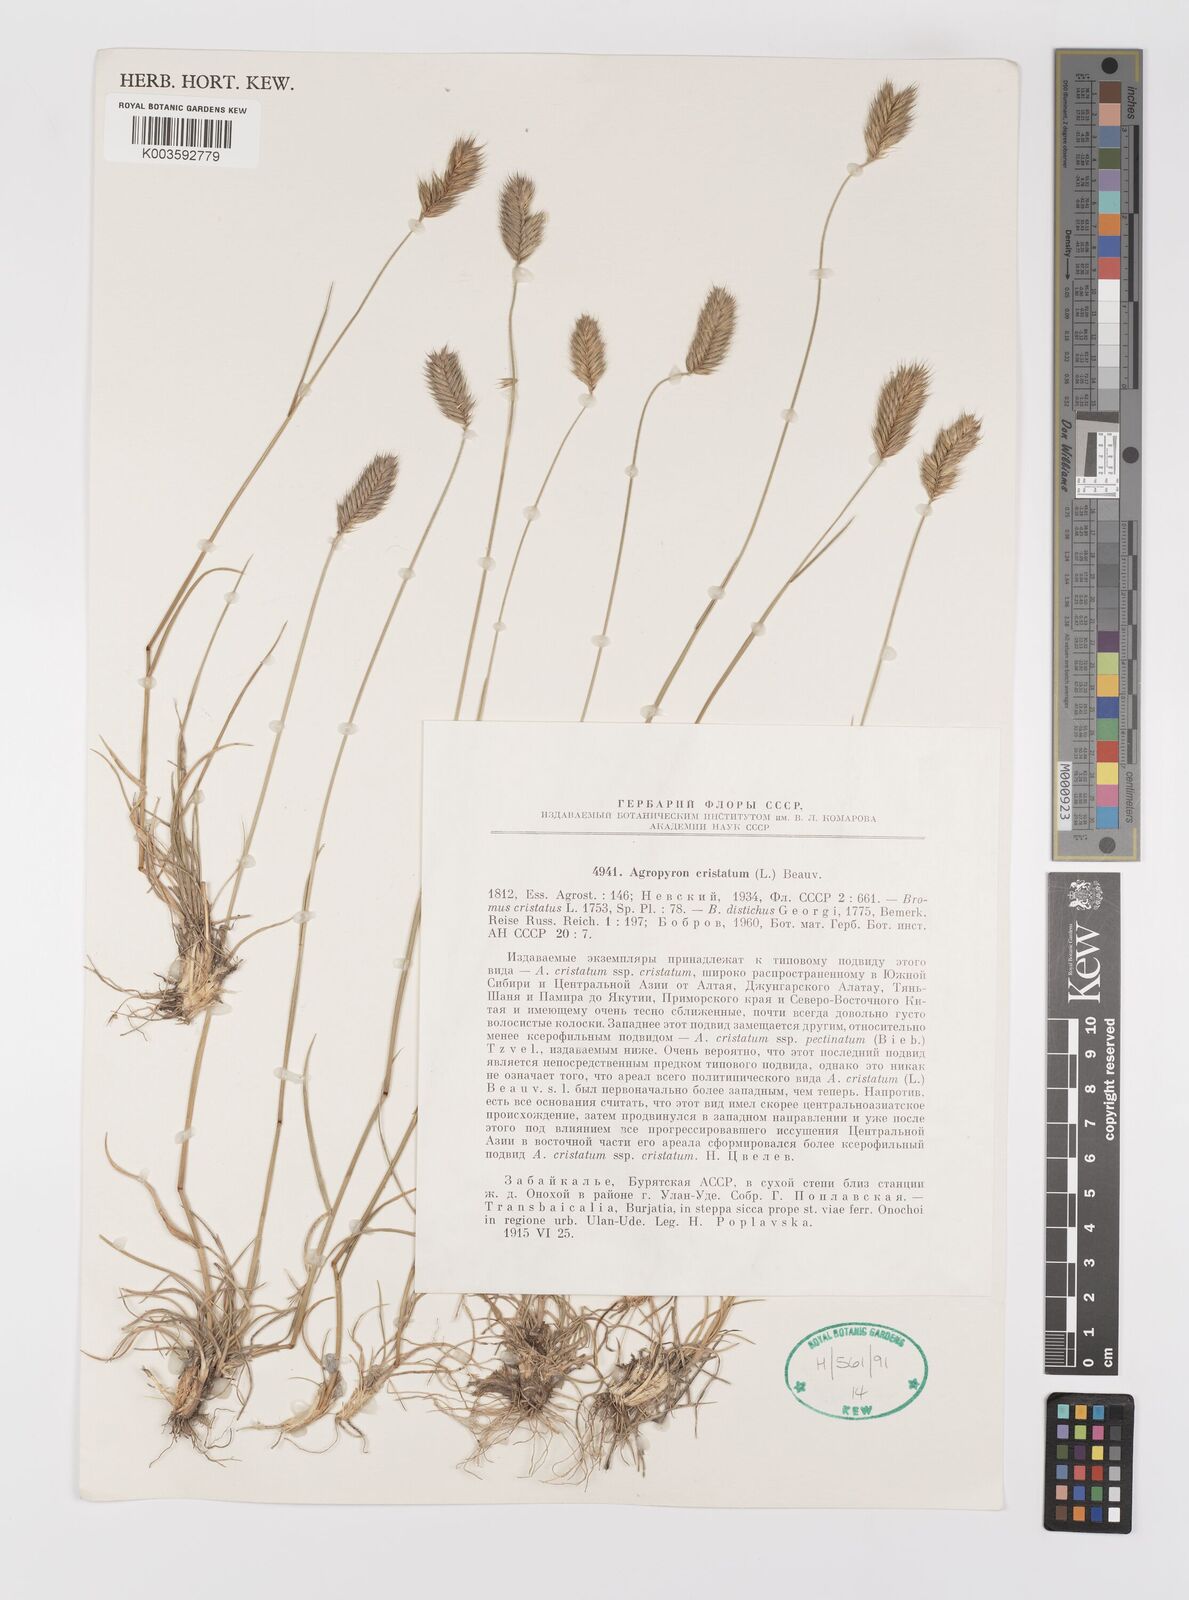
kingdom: Plantae
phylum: Tracheophyta
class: Liliopsida
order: Poales
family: Poaceae
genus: Agropyron
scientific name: Agropyron cristatum
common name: Crested wheatgrass
